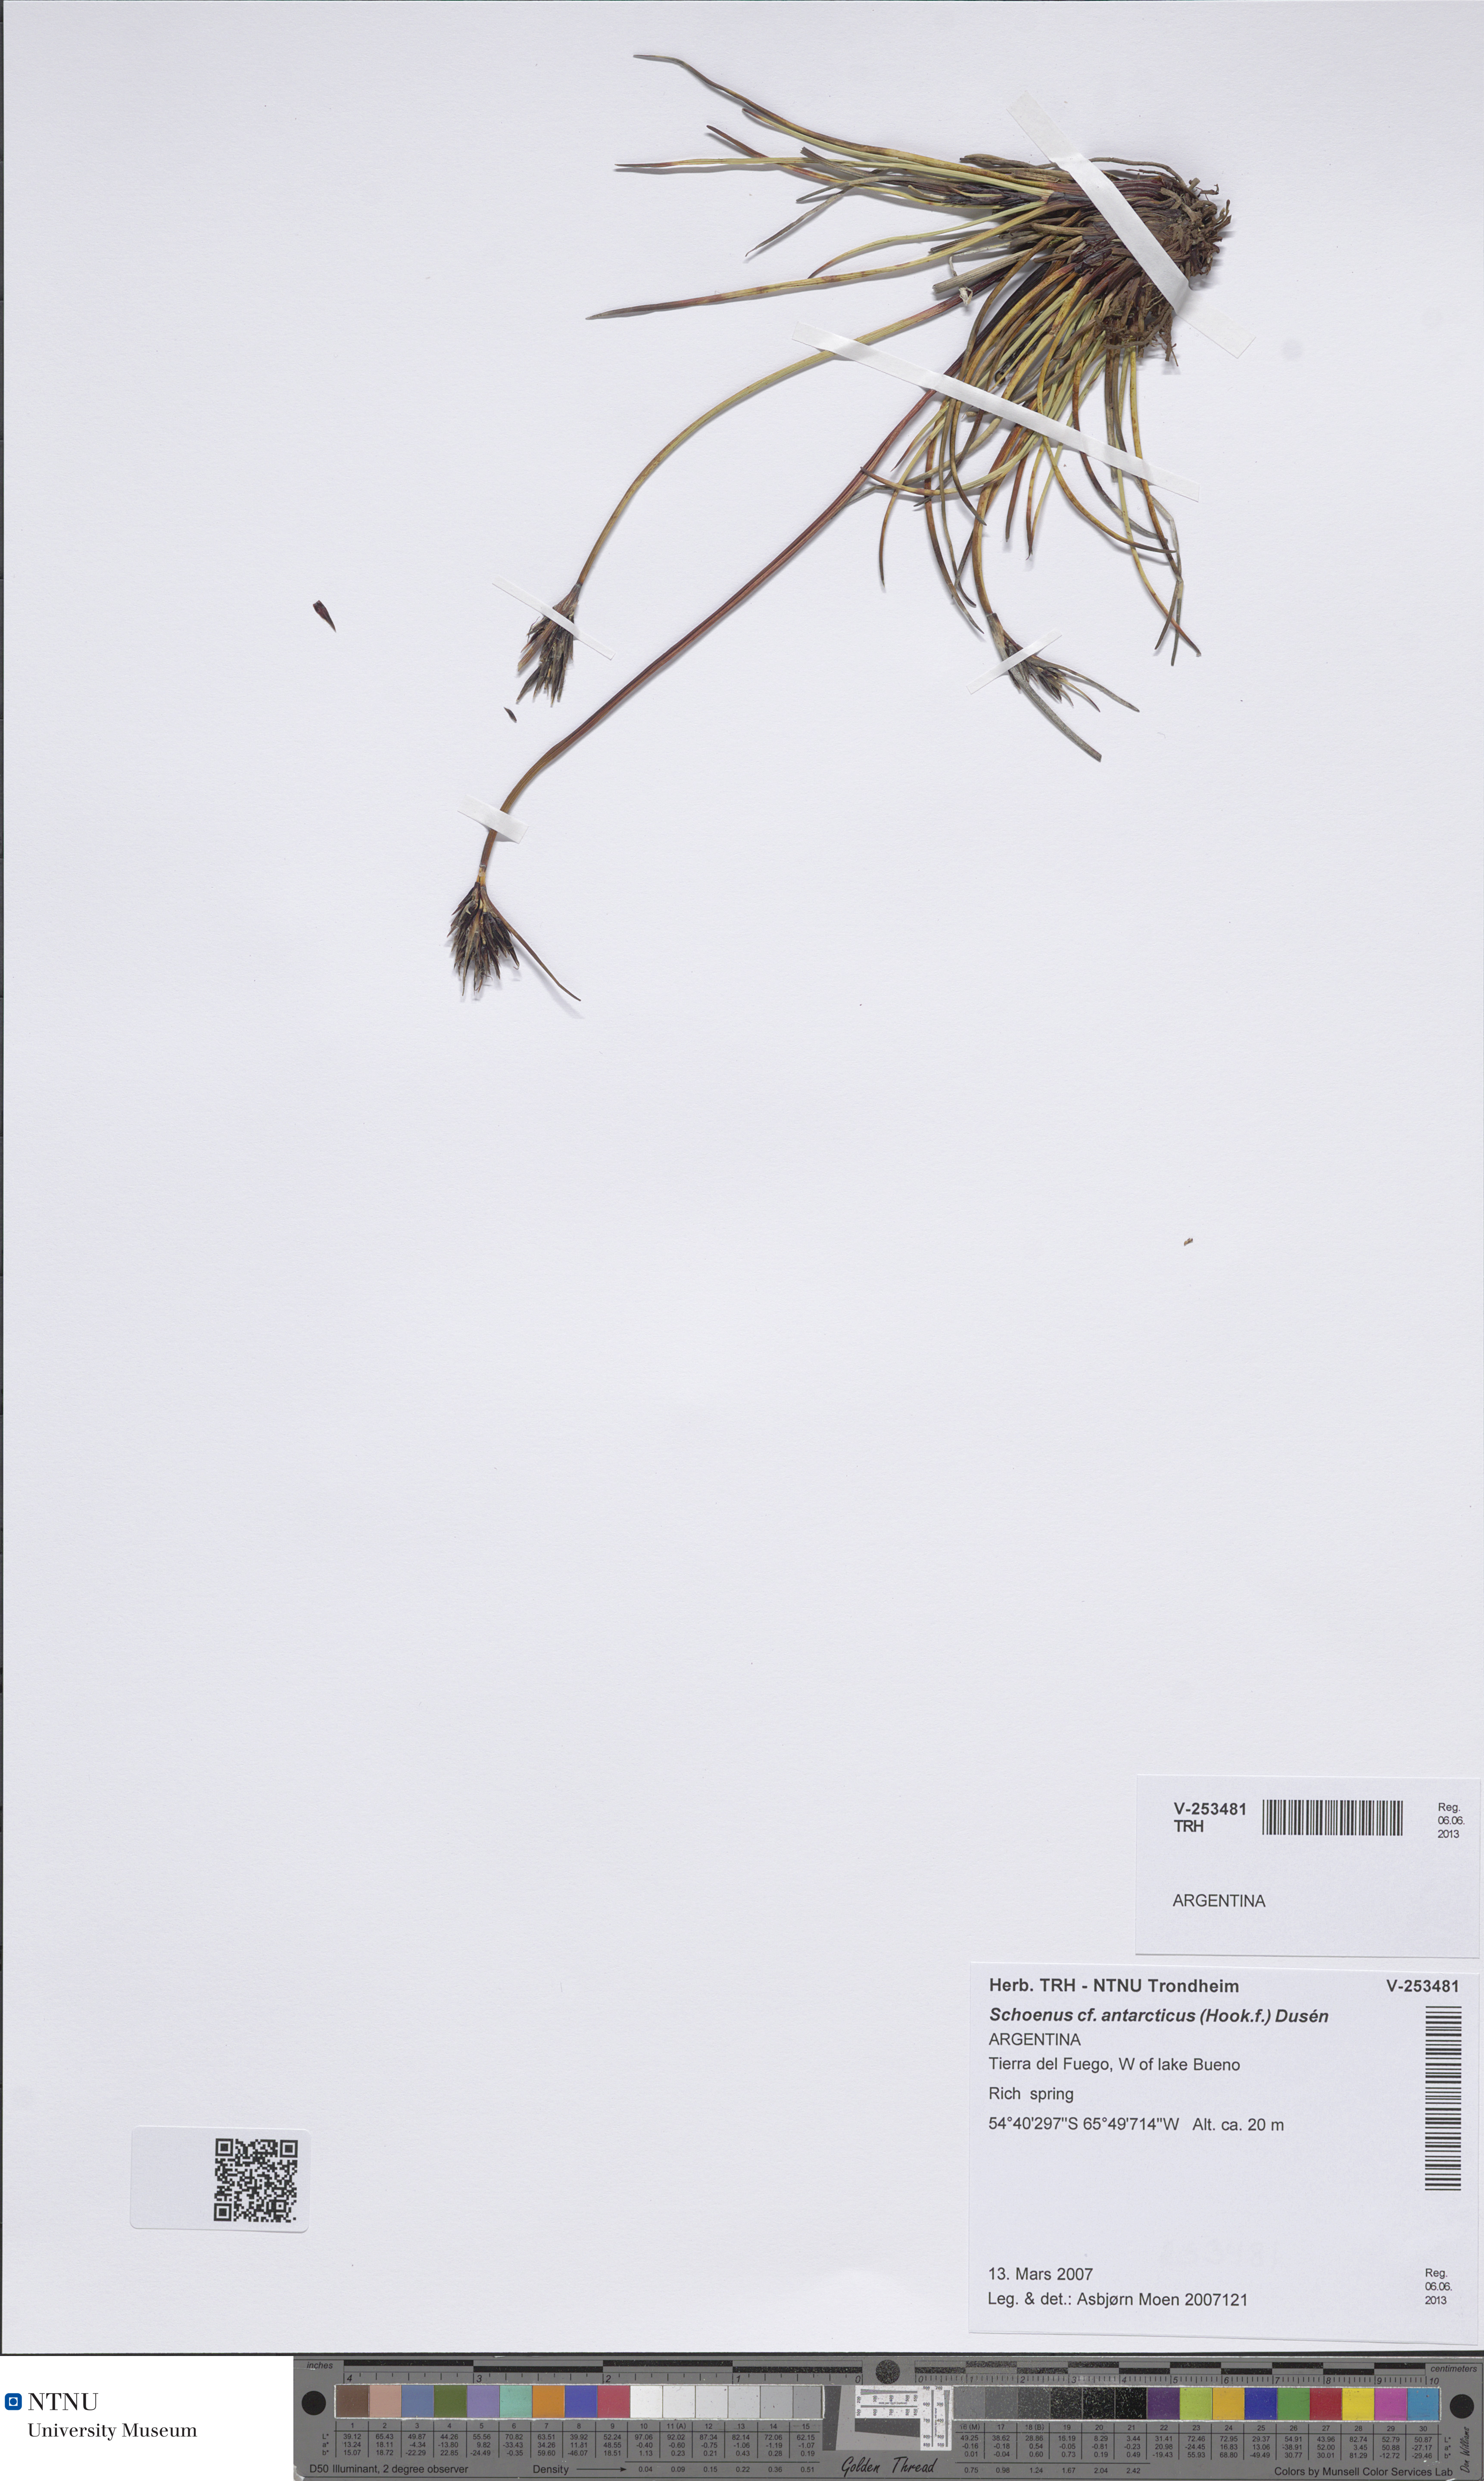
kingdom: Plantae
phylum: Tracheophyta
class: Liliopsida
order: Poales
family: Cyperaceae
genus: Schoenus
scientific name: Schoenus antarcticus
